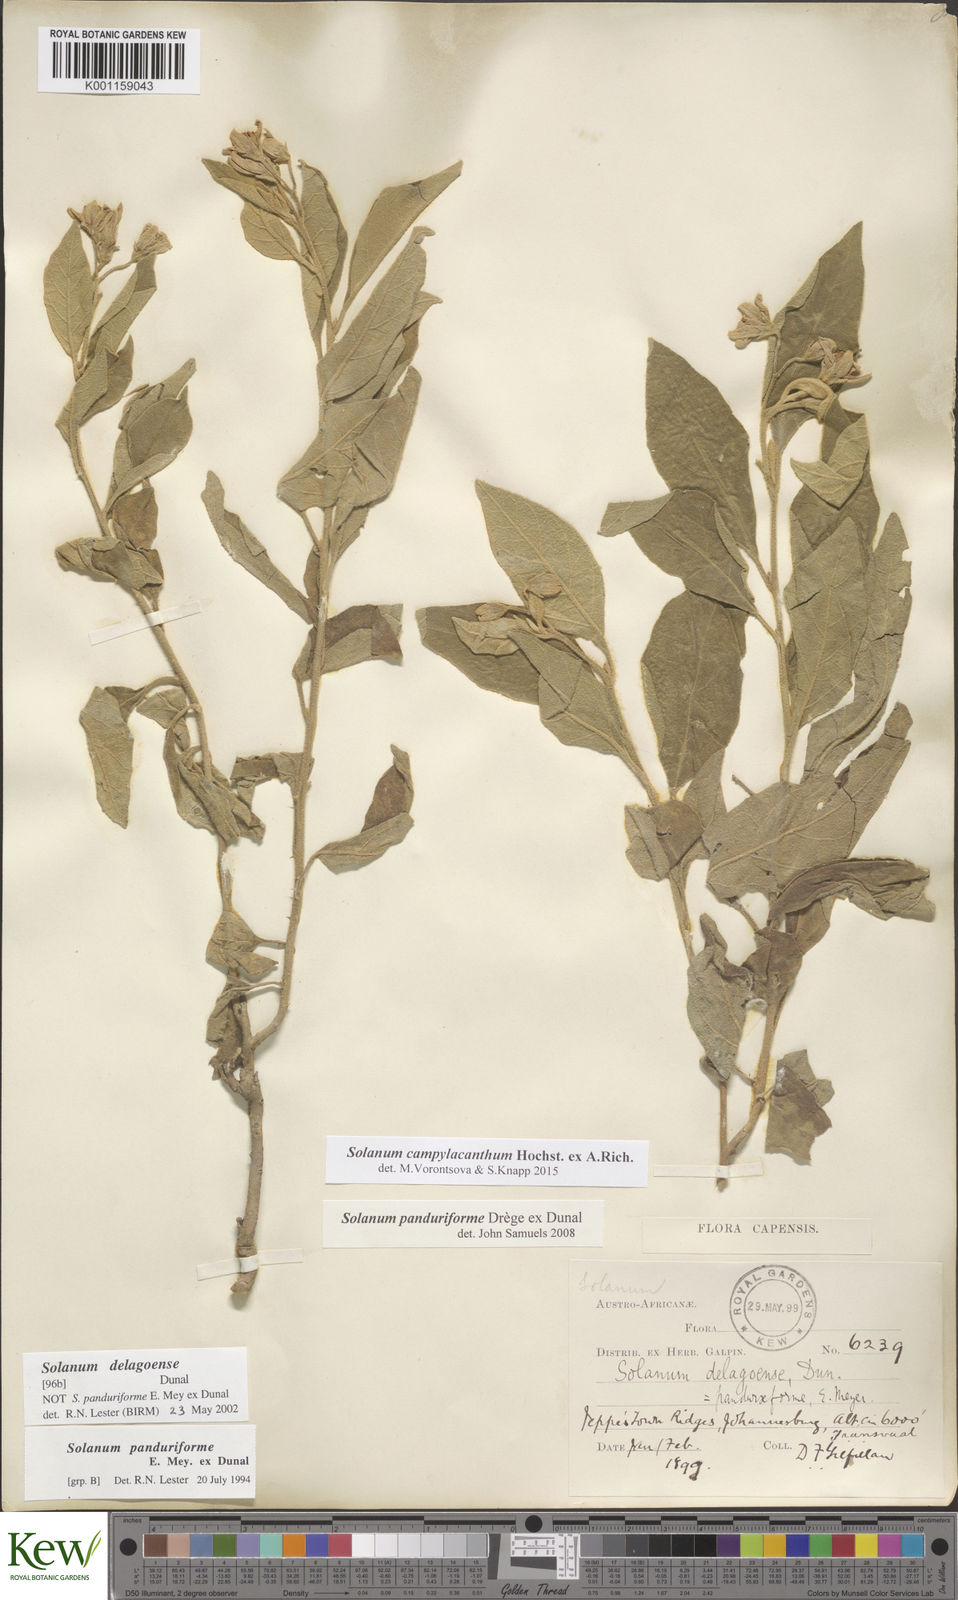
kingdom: Plantae
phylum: Tracheophyta
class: Magnoliopsida
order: Solanales
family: Solanaceae
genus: Solanum
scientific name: Solanum campylacanthum
